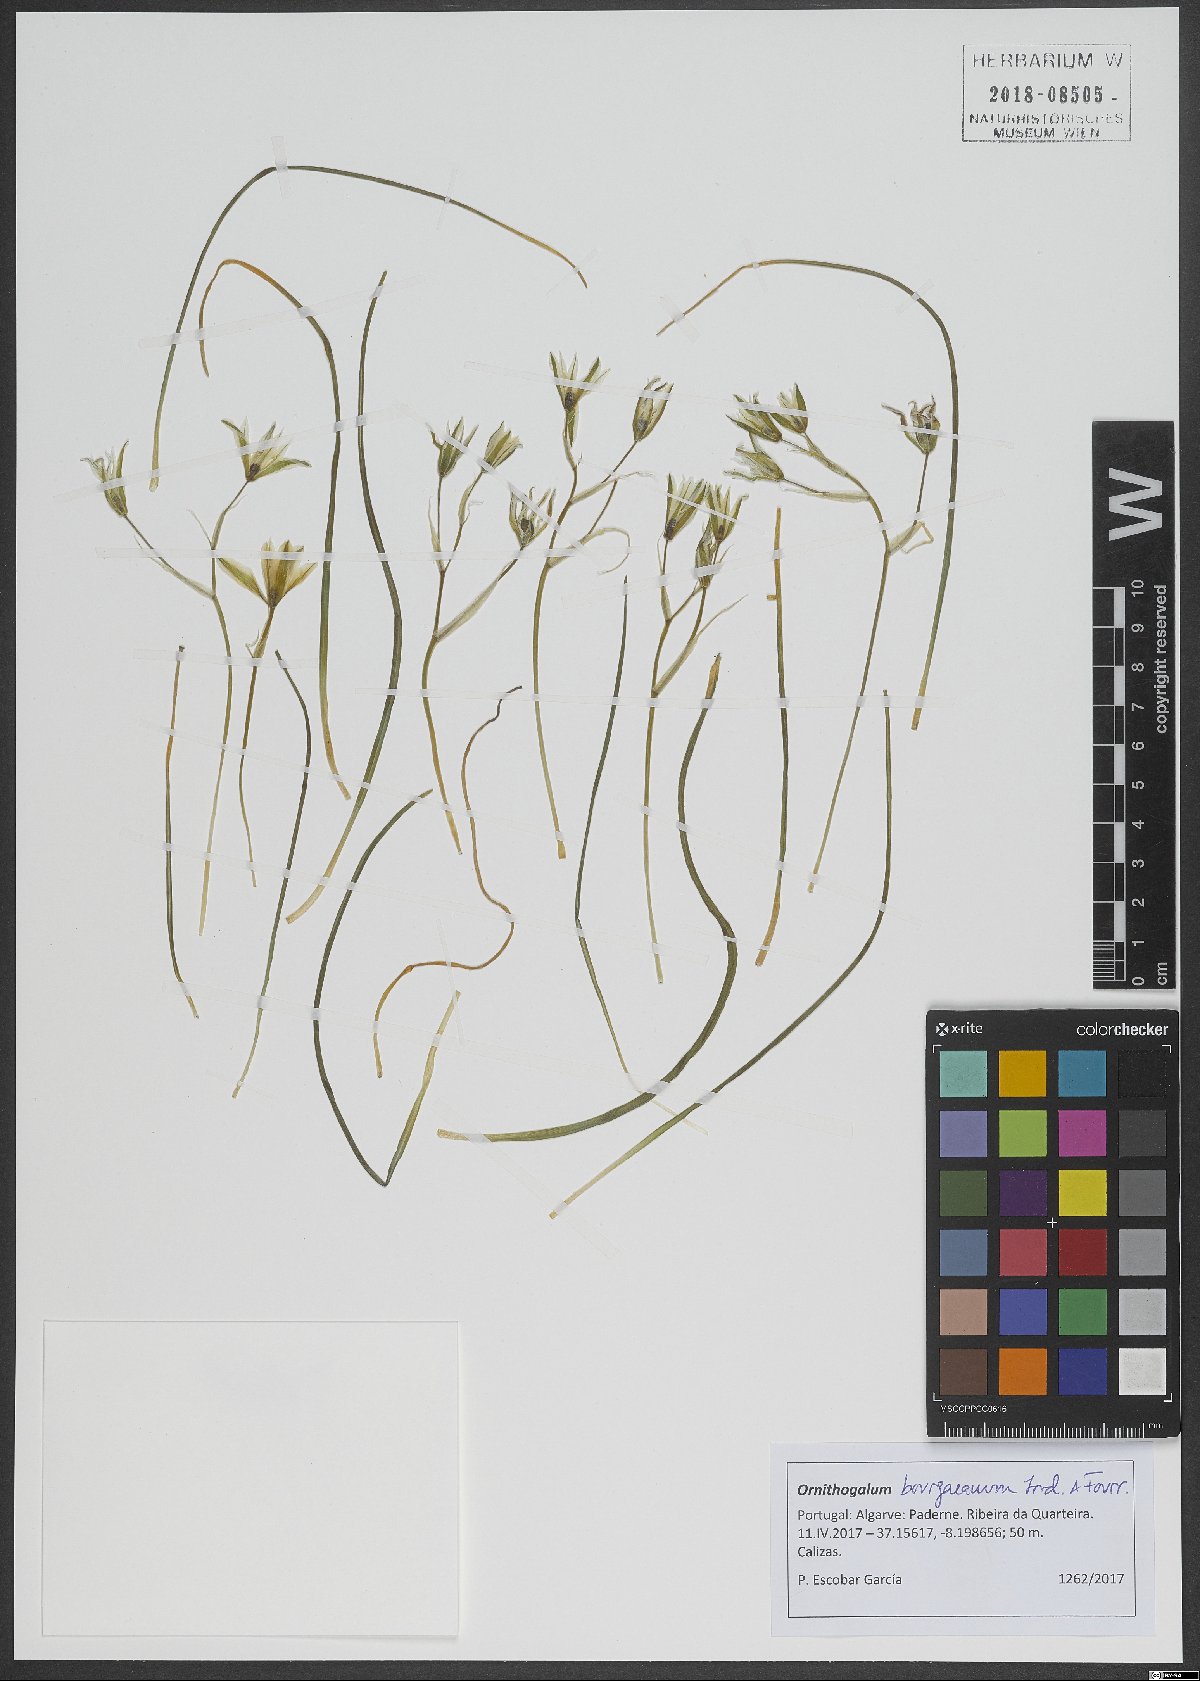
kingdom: Plantae
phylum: Tracheophyta
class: Liliopsida
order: Asparagales
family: Asparagaceae
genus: Ornithogalum
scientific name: Ornithogalum bourgaeanum
